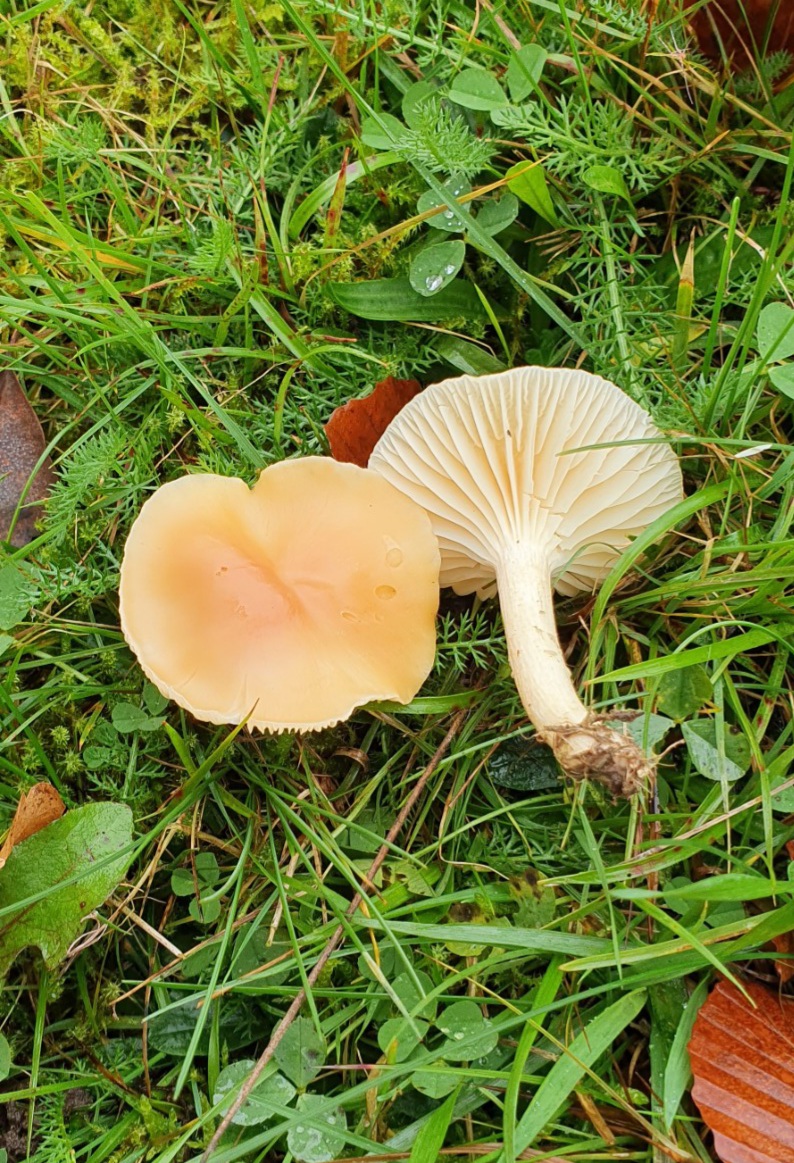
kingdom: Fungi
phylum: Basidiomycota
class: Agaricomycetes
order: Agaricales
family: Hygrophoraceae
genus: Cuphophyllus
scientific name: Cuphophyllus pratensis
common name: eng-vokshat
